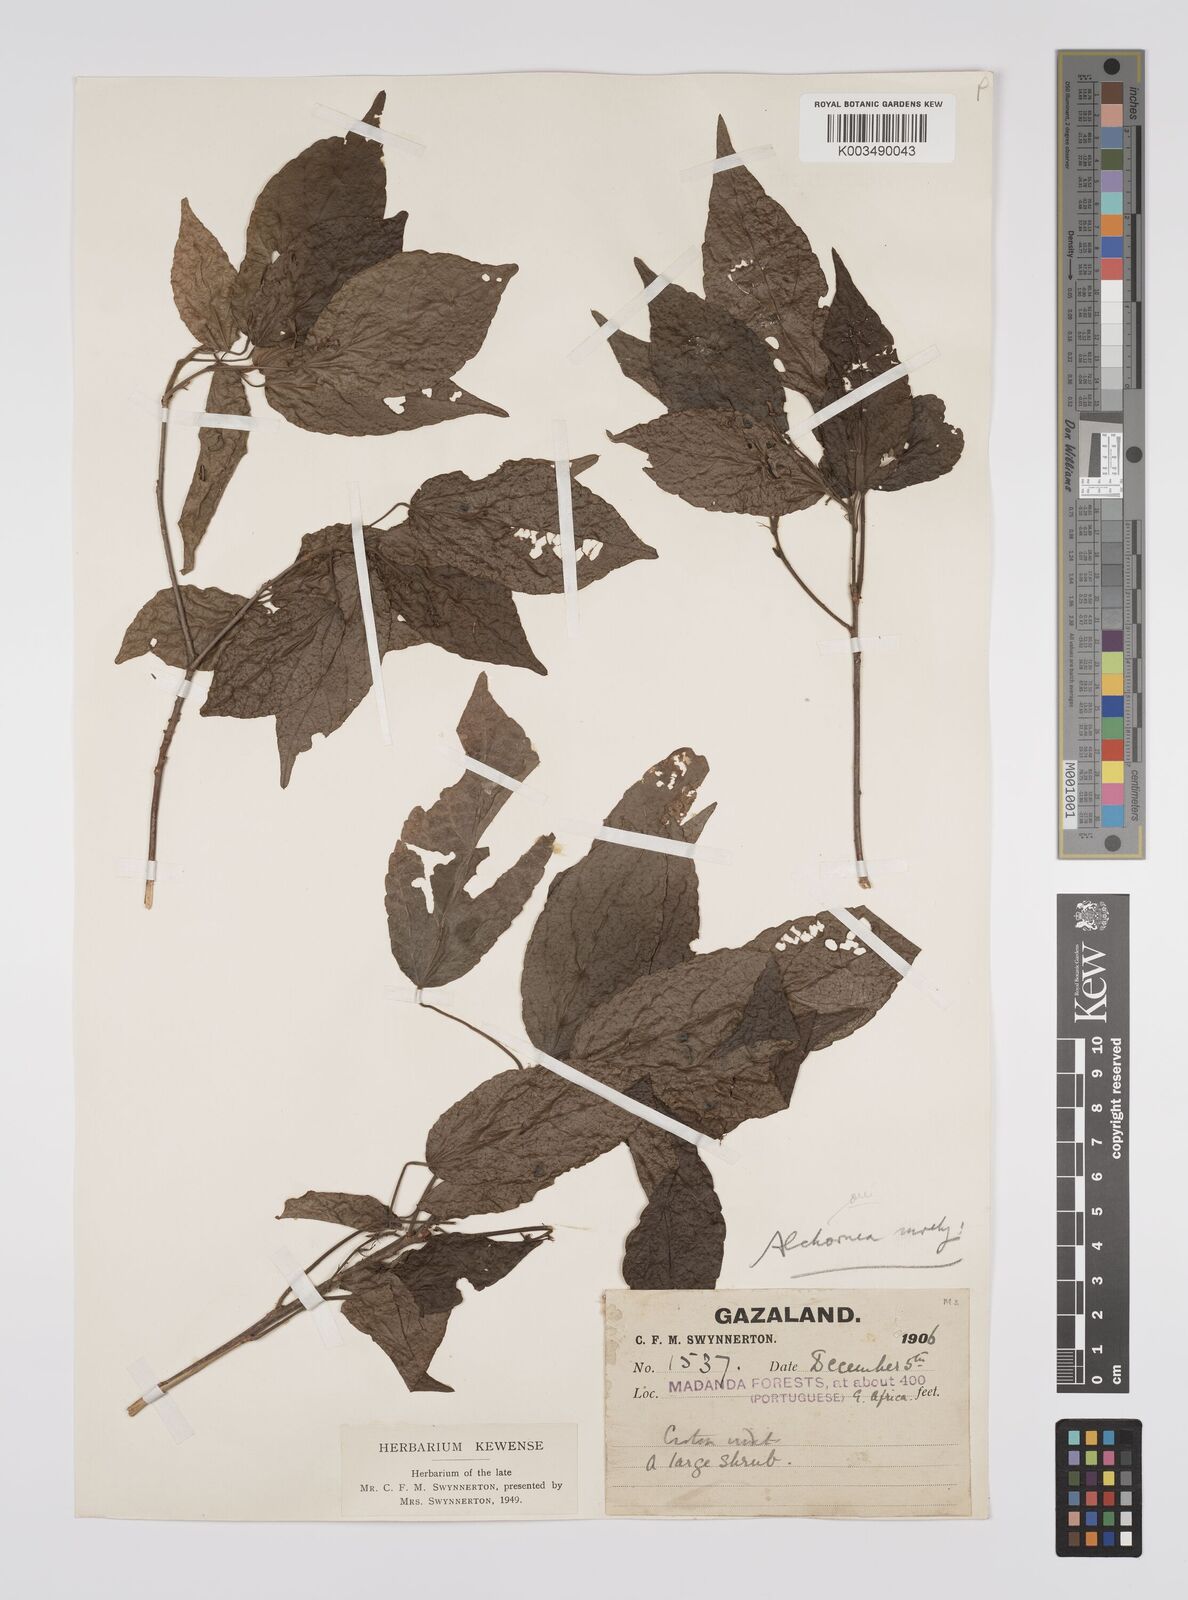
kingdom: Plantae
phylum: Tracheophyta
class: Magnoliopsida
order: Malpighiales
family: Euphorbiaceae
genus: Alchornea
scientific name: Alchornea laxiflora
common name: Lowveld bead-string
